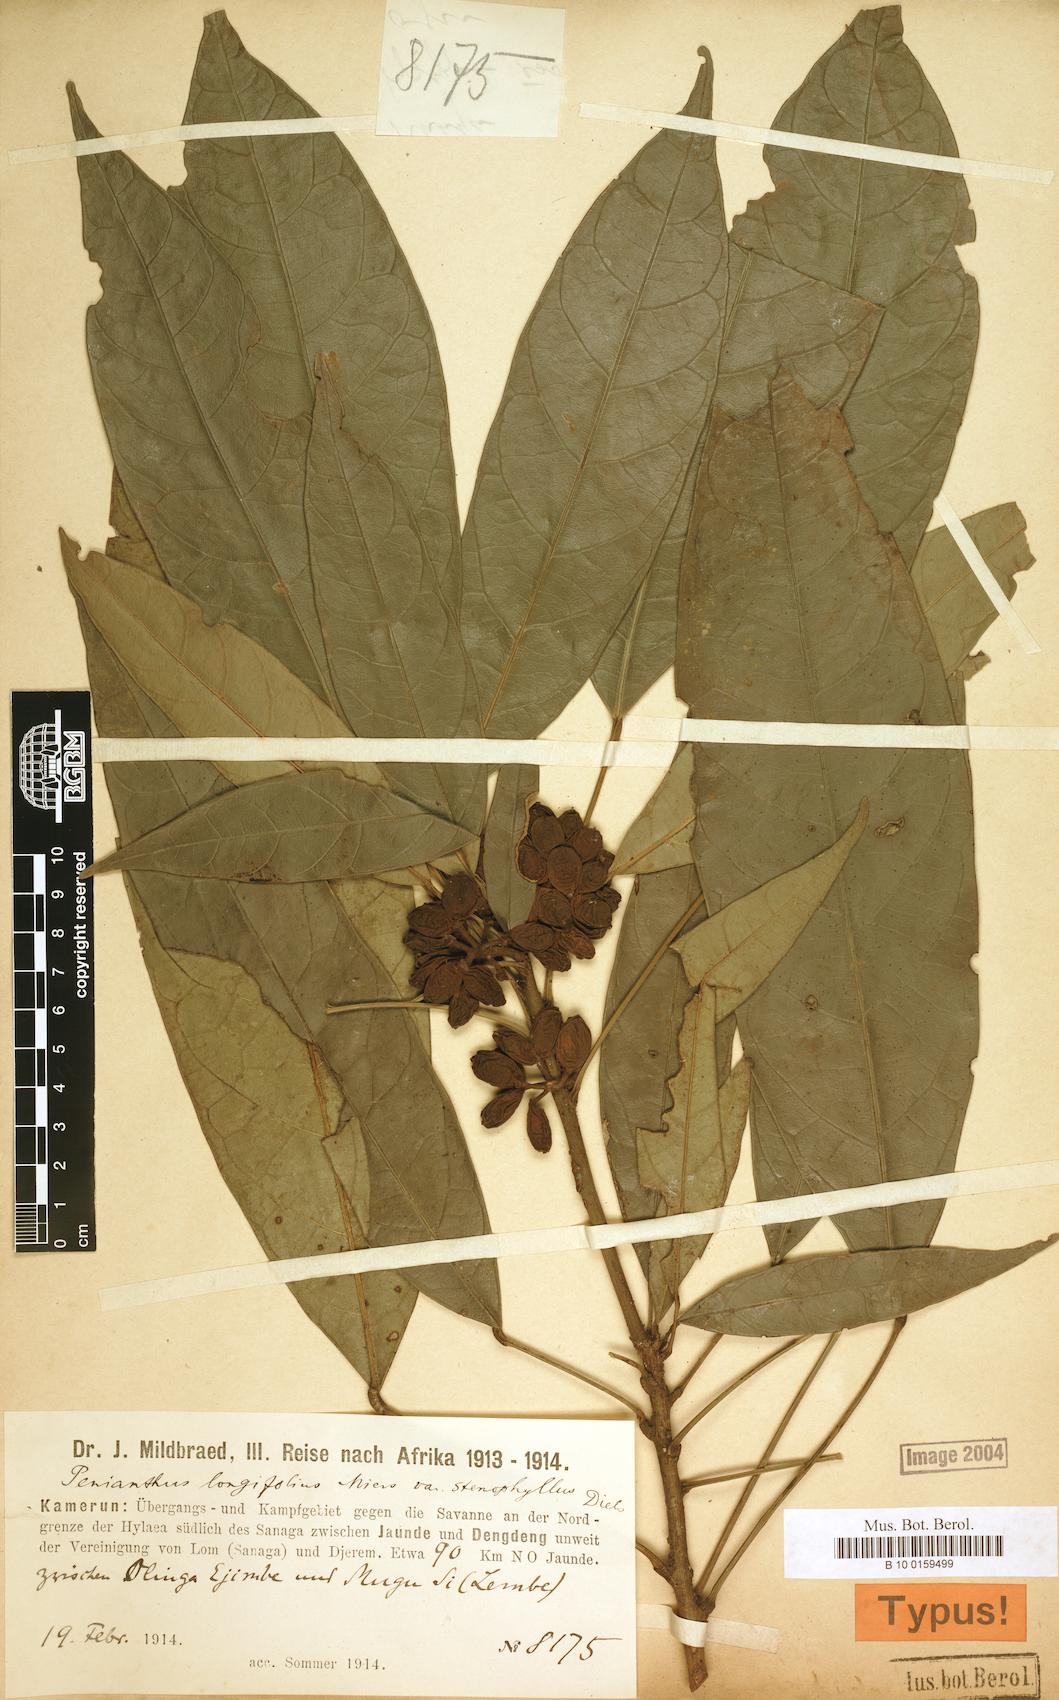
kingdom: Plantae
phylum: Tracheophyta
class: Magnoliopsida
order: Ranunculales
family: Menispermaceae
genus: Penianthus
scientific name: Penianthus longifolius
